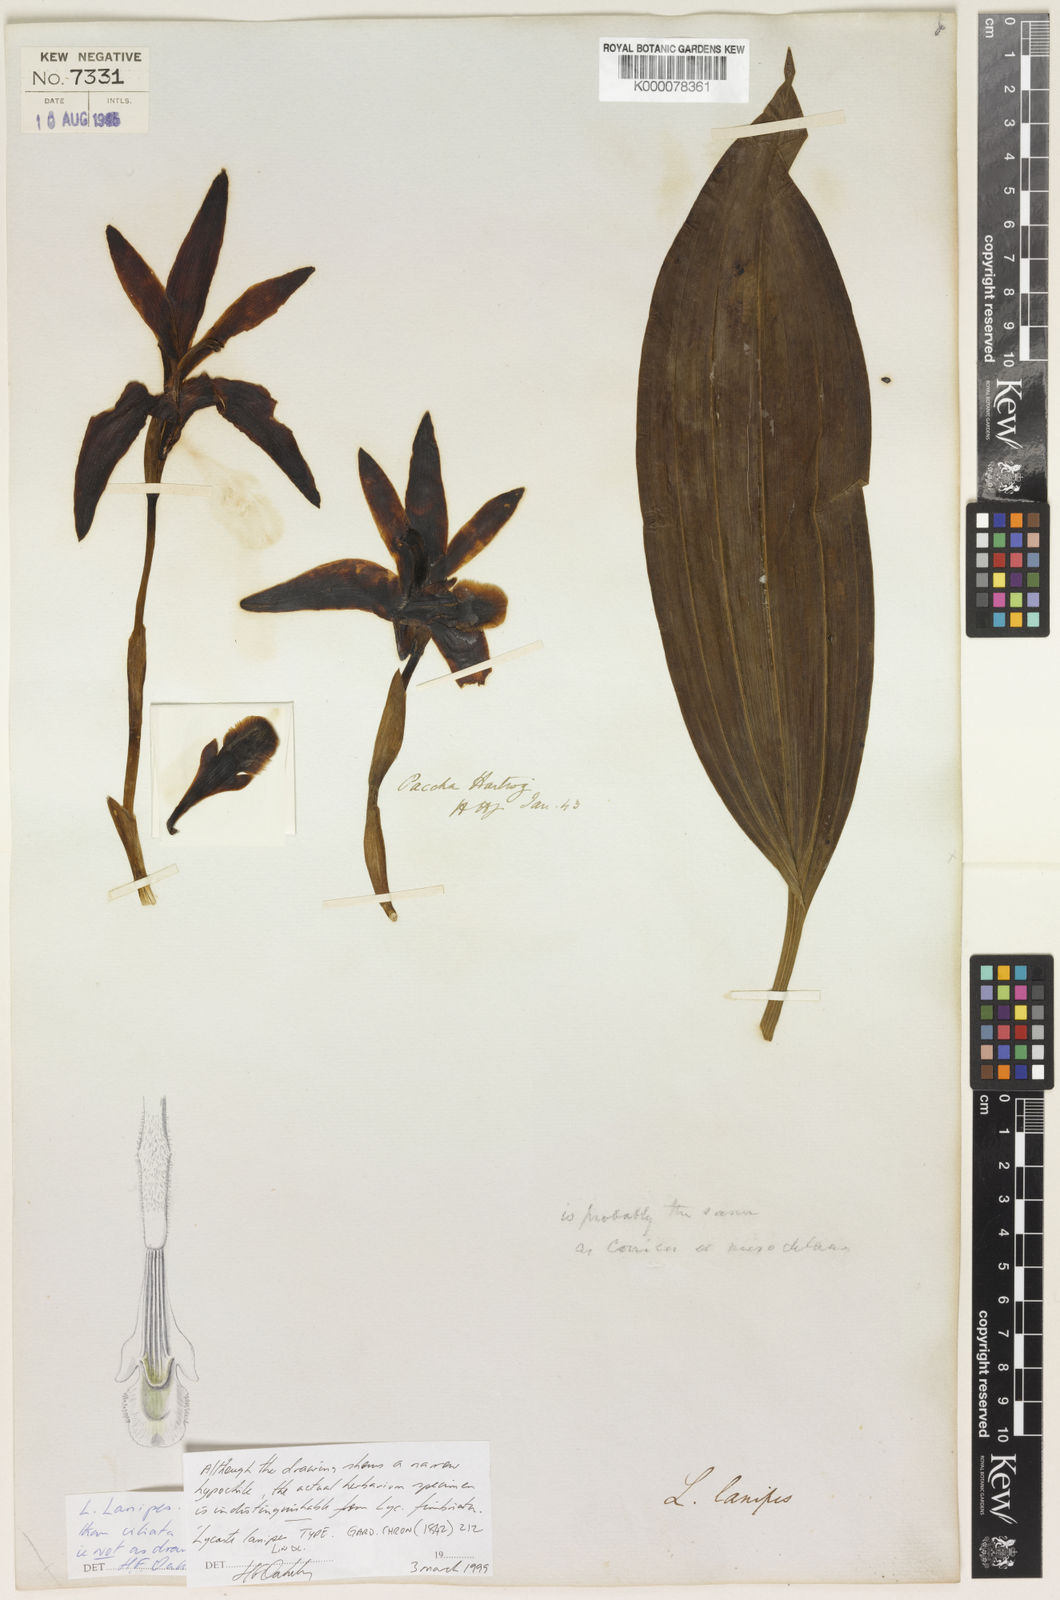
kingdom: Plantae
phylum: Tracheophyta
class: Liliopsida
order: Asparagales
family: Orchidaceae
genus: Ida
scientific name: Ida lanipes
